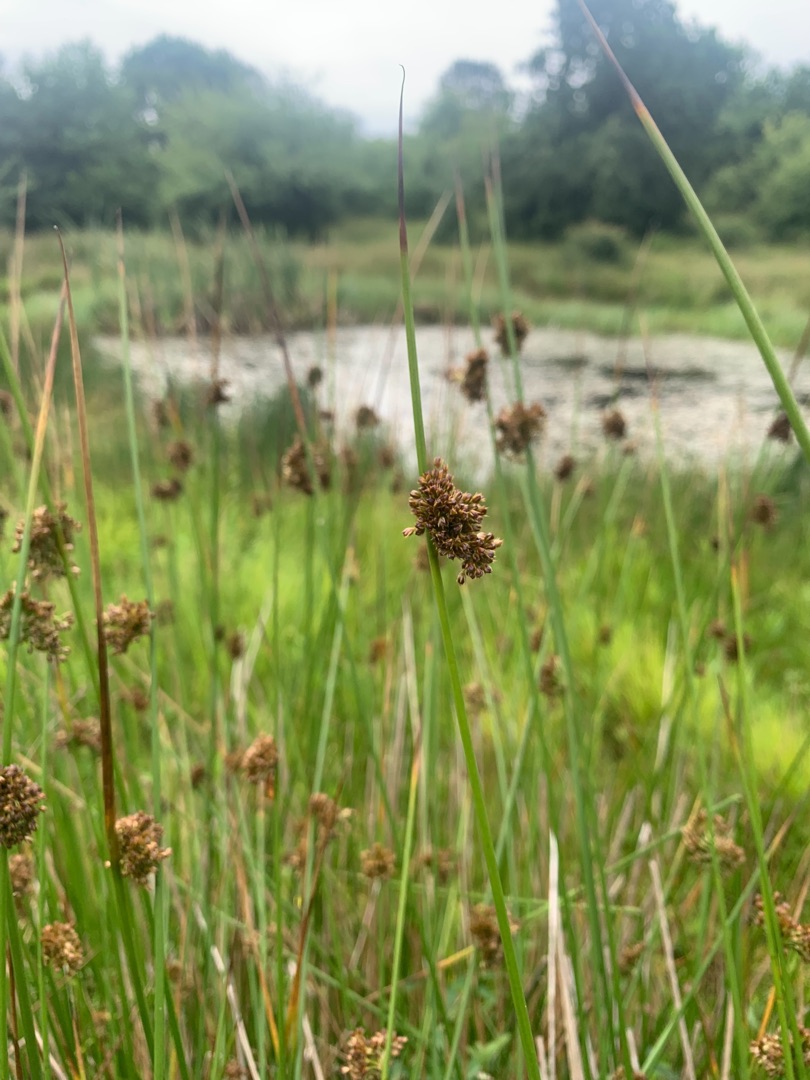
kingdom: Plantae
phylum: Tracheophyta
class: Liliopsida
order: Poales
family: Juncaceae
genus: Juncus
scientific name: Juncus effusus
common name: Lyse-siv
